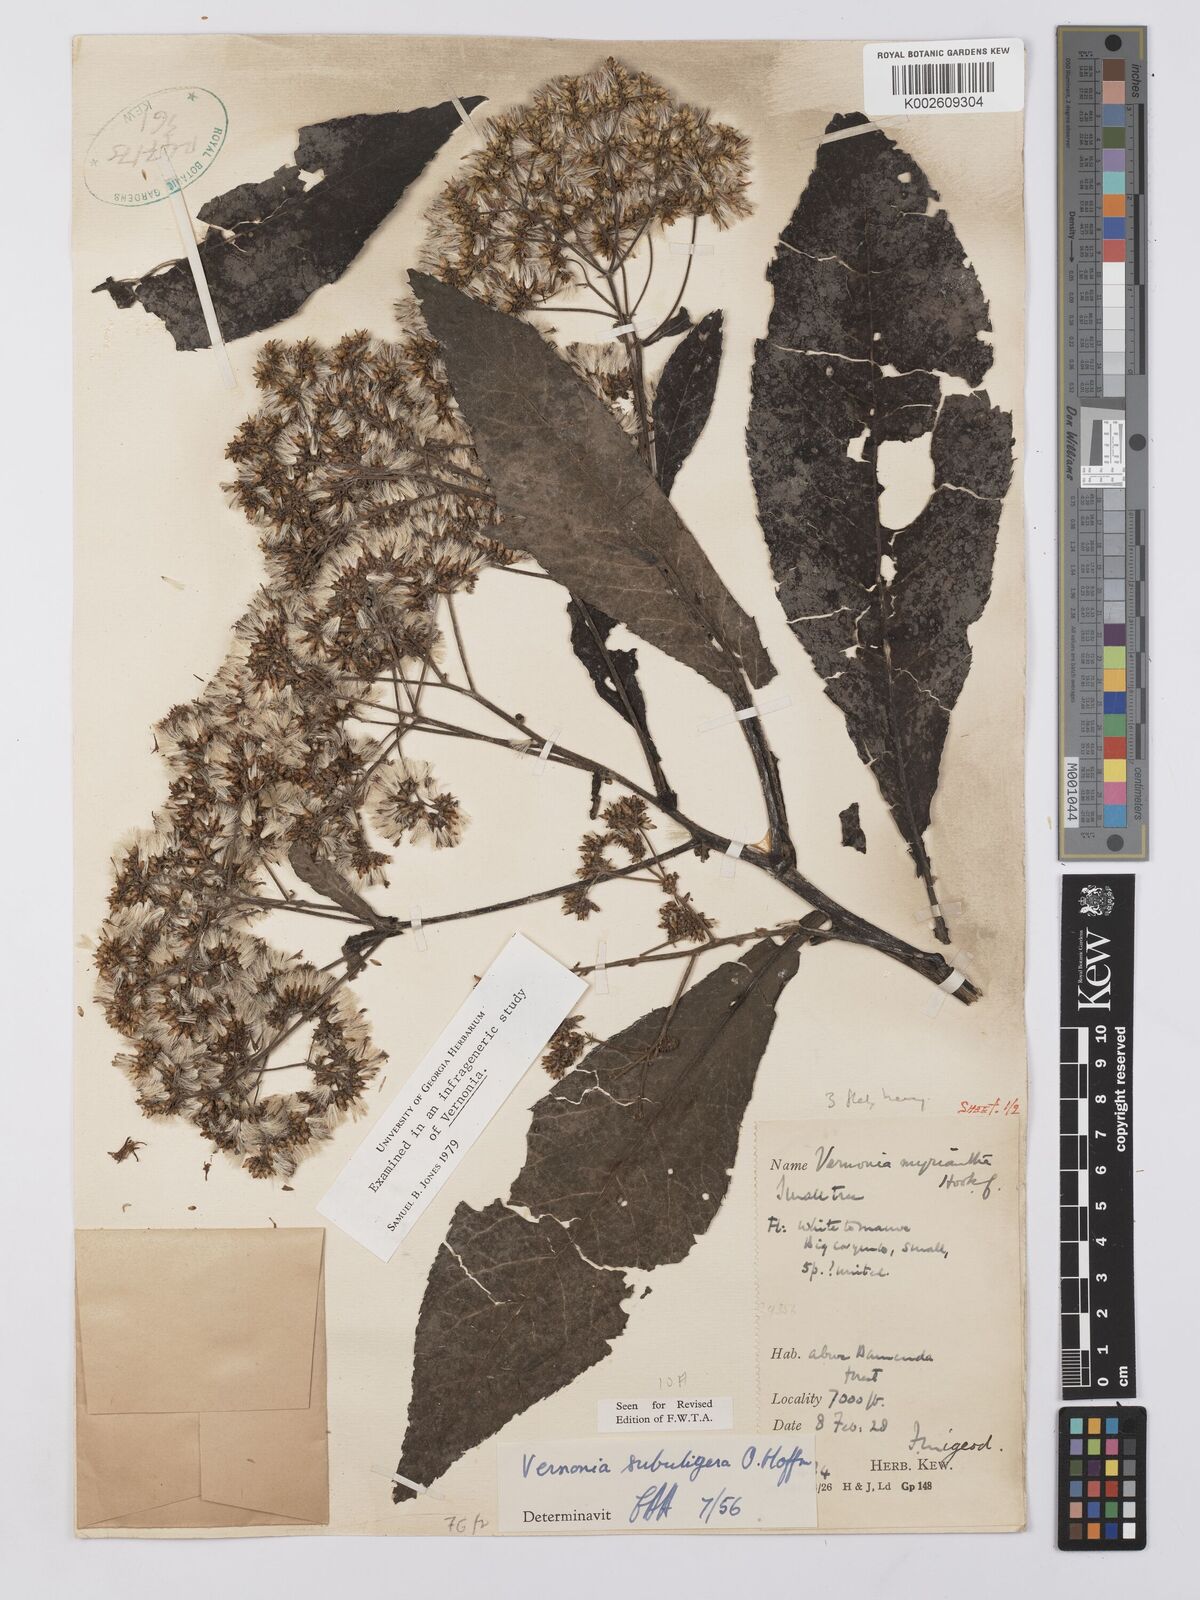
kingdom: Plantae
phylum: Tracheophyta
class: Magnoliopsida
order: Asterales
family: Asteraceae
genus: Gymnanthemum
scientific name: Gymnanthemum myrianthum
